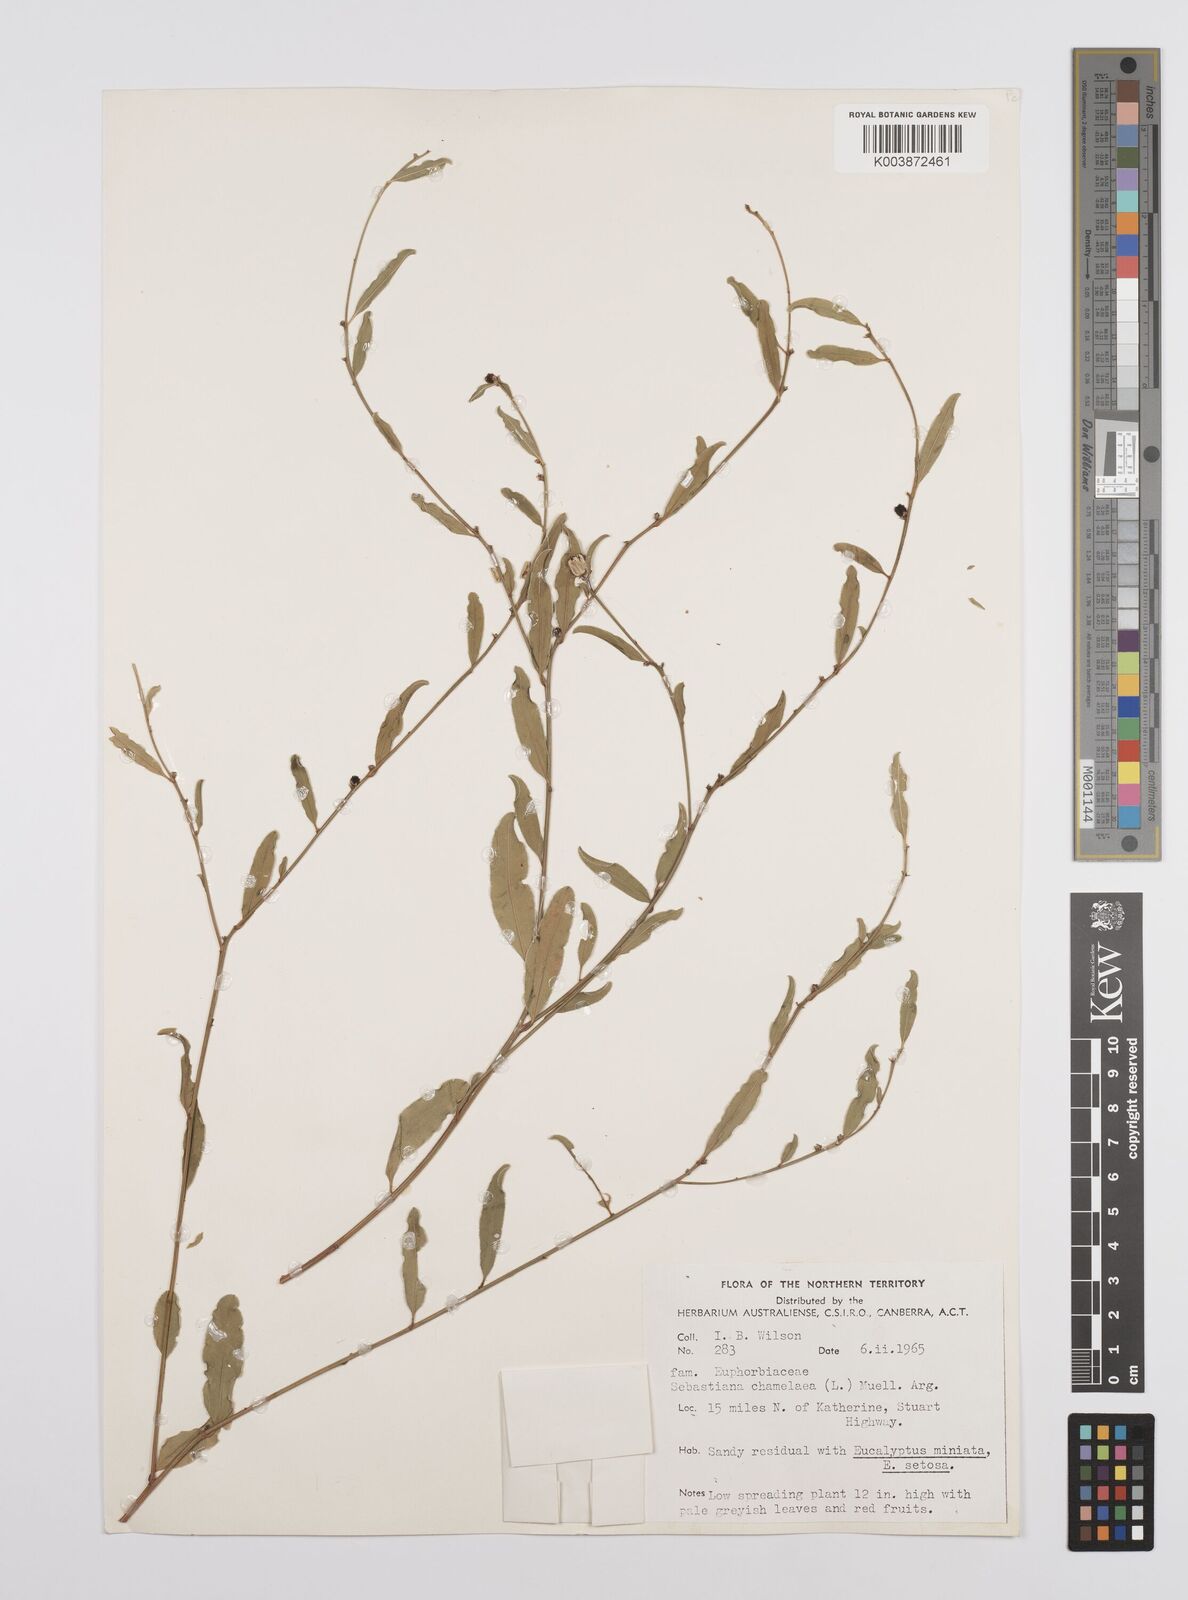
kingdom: Plantae
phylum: Tracheophyta
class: Magnoliopsida
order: Malpighiales
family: Euphorbiaceae
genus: Microstachys
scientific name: Microstachys chamaelea
